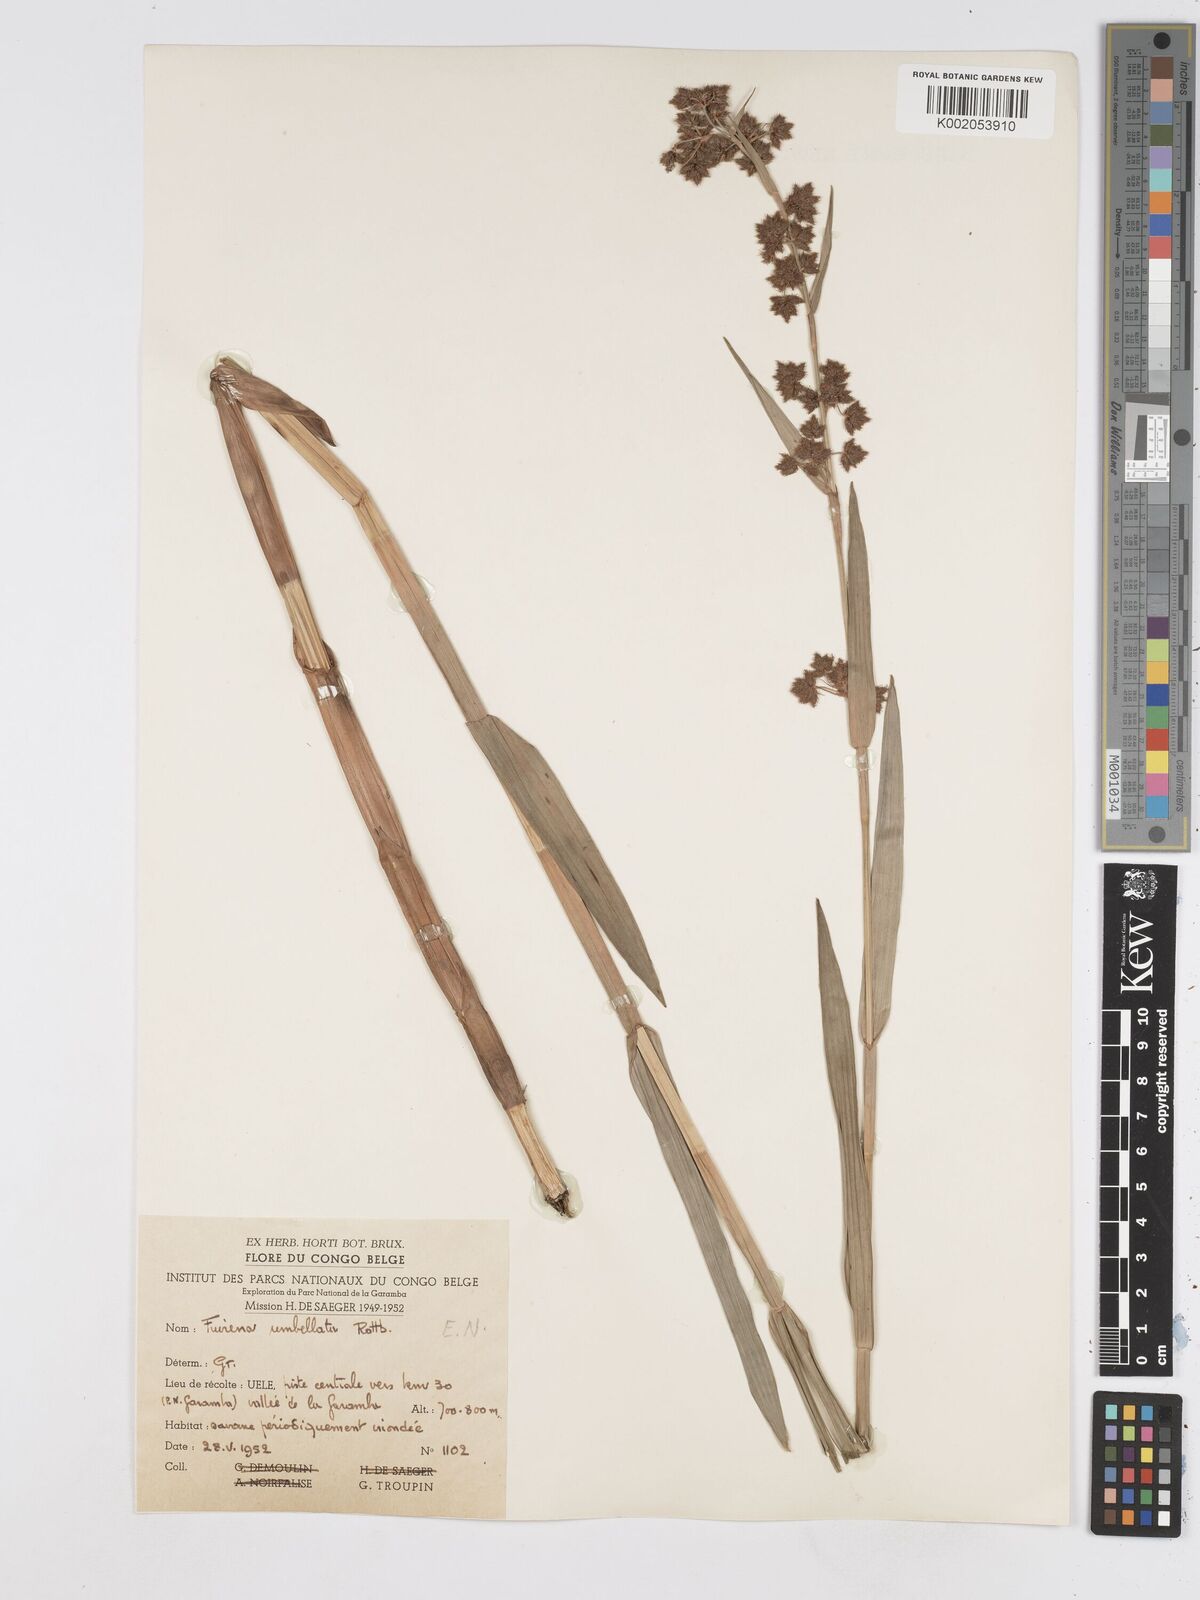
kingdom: Plantae
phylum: Tracheophyta
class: Liliopsida
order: Poales
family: Cyperaceae
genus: Fuirena
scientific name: Fuirena umbellata
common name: Yefen
